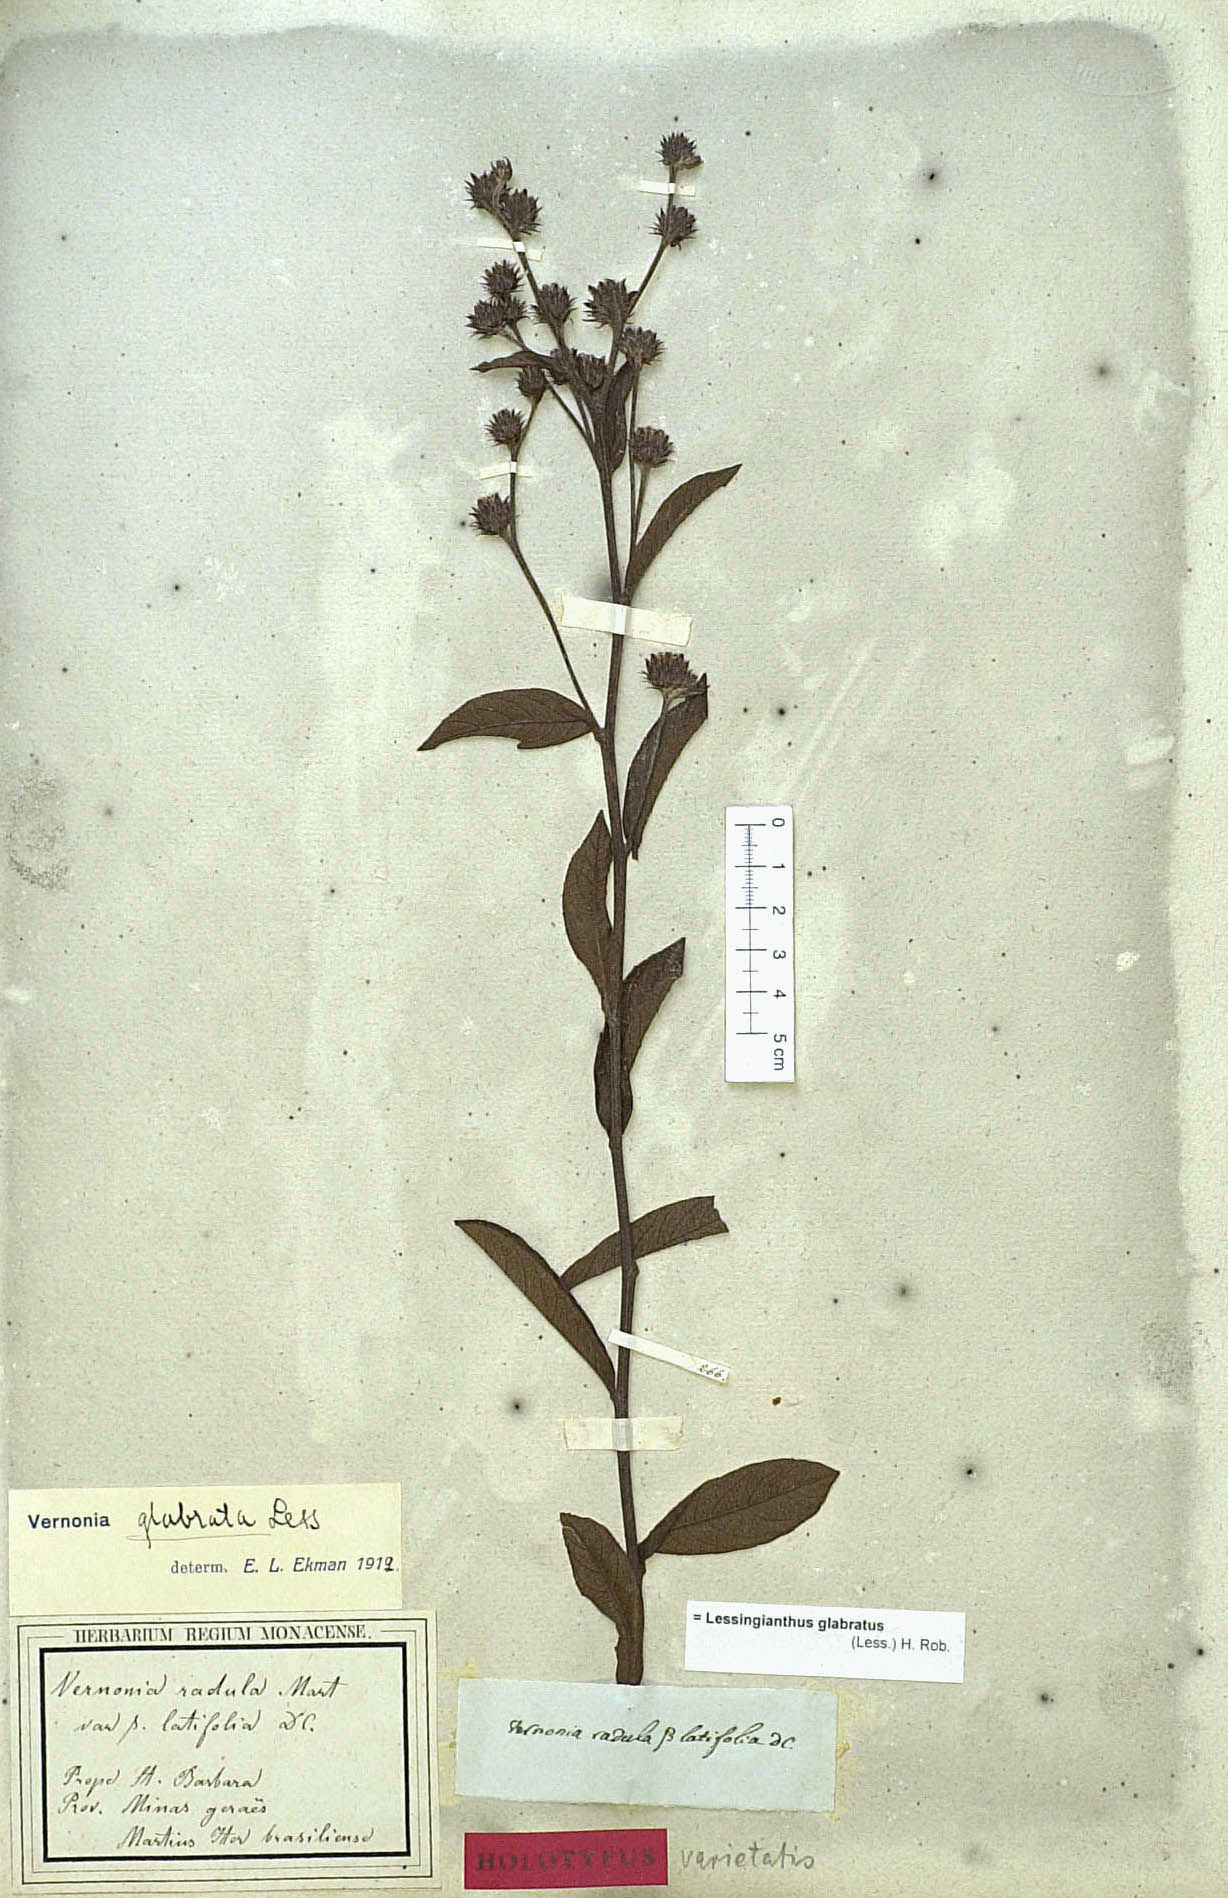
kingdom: Plantae
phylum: Tracheophyta
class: Magnoliopsida
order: Asterales
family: Asteraceae
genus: Lessingianthus
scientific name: Lessingianthus glabratus
